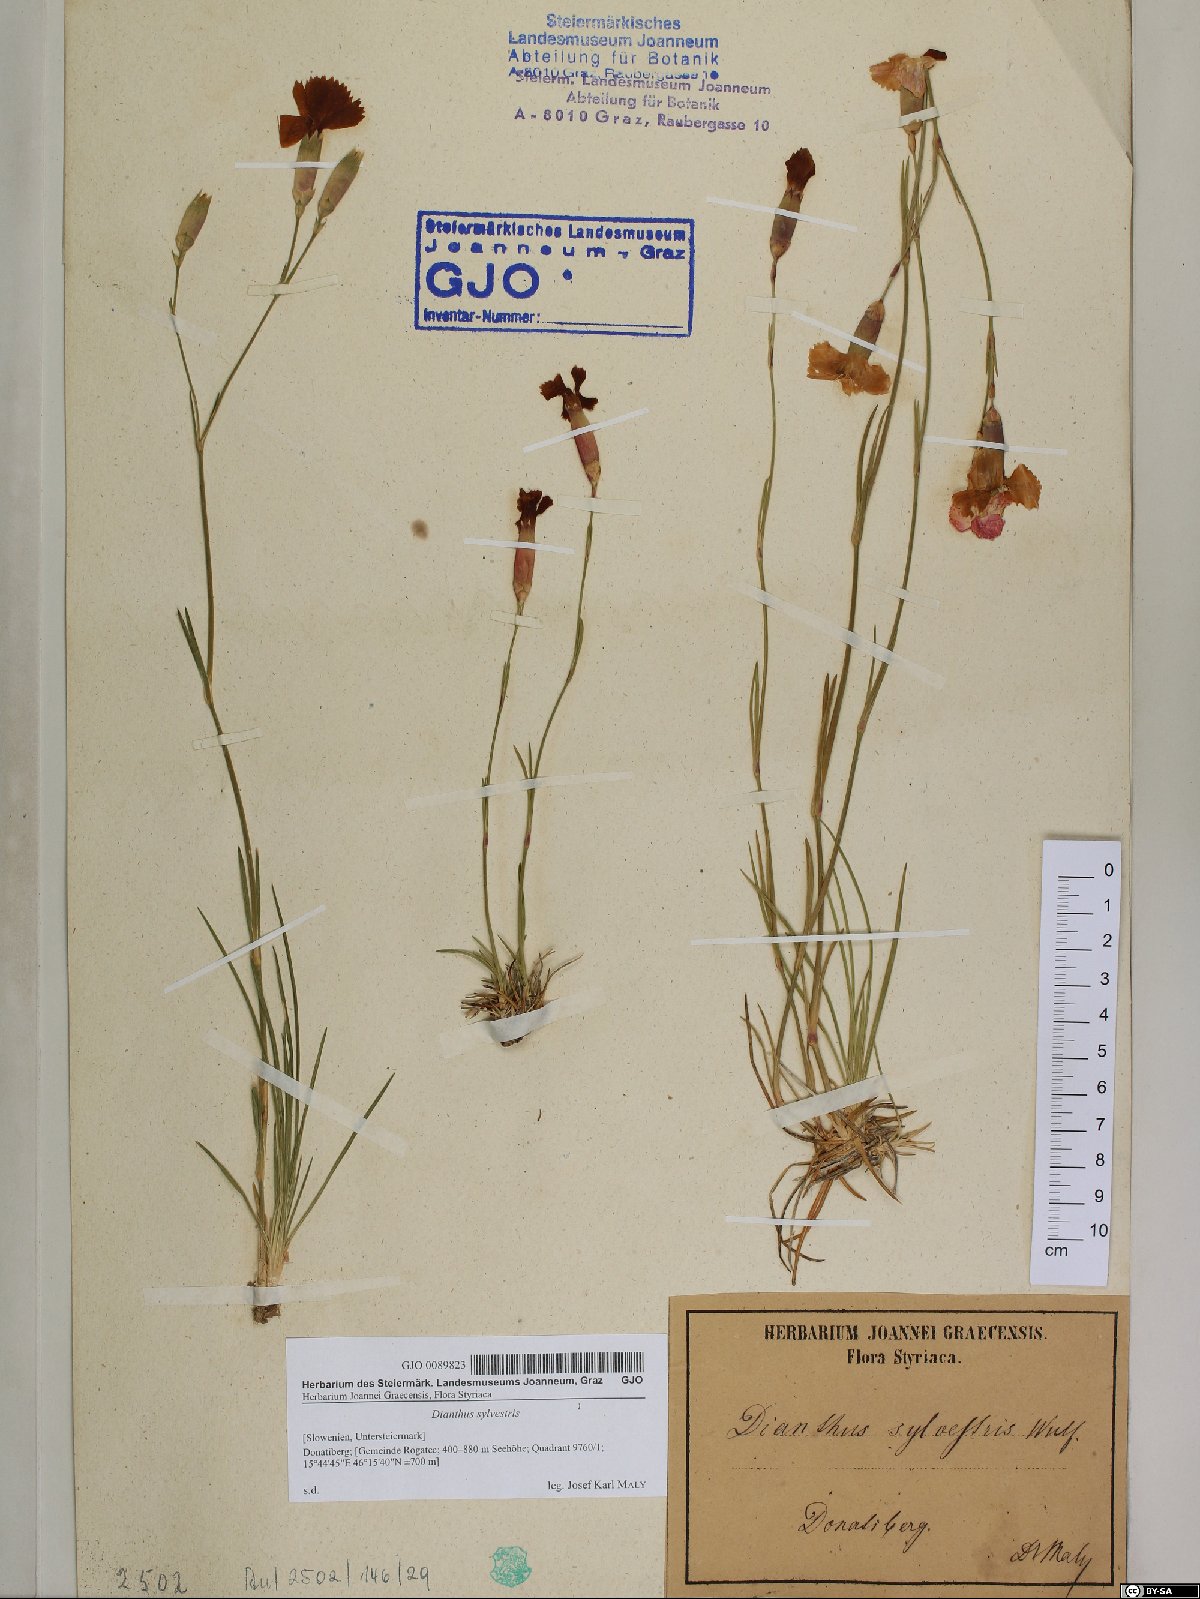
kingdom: Plantae
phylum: Tracheophyta
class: Magnoliopsida
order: Caryophyllales
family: Caryophyllaceae
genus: Dianthus
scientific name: Dianthus sylvestris
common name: Wood pink
